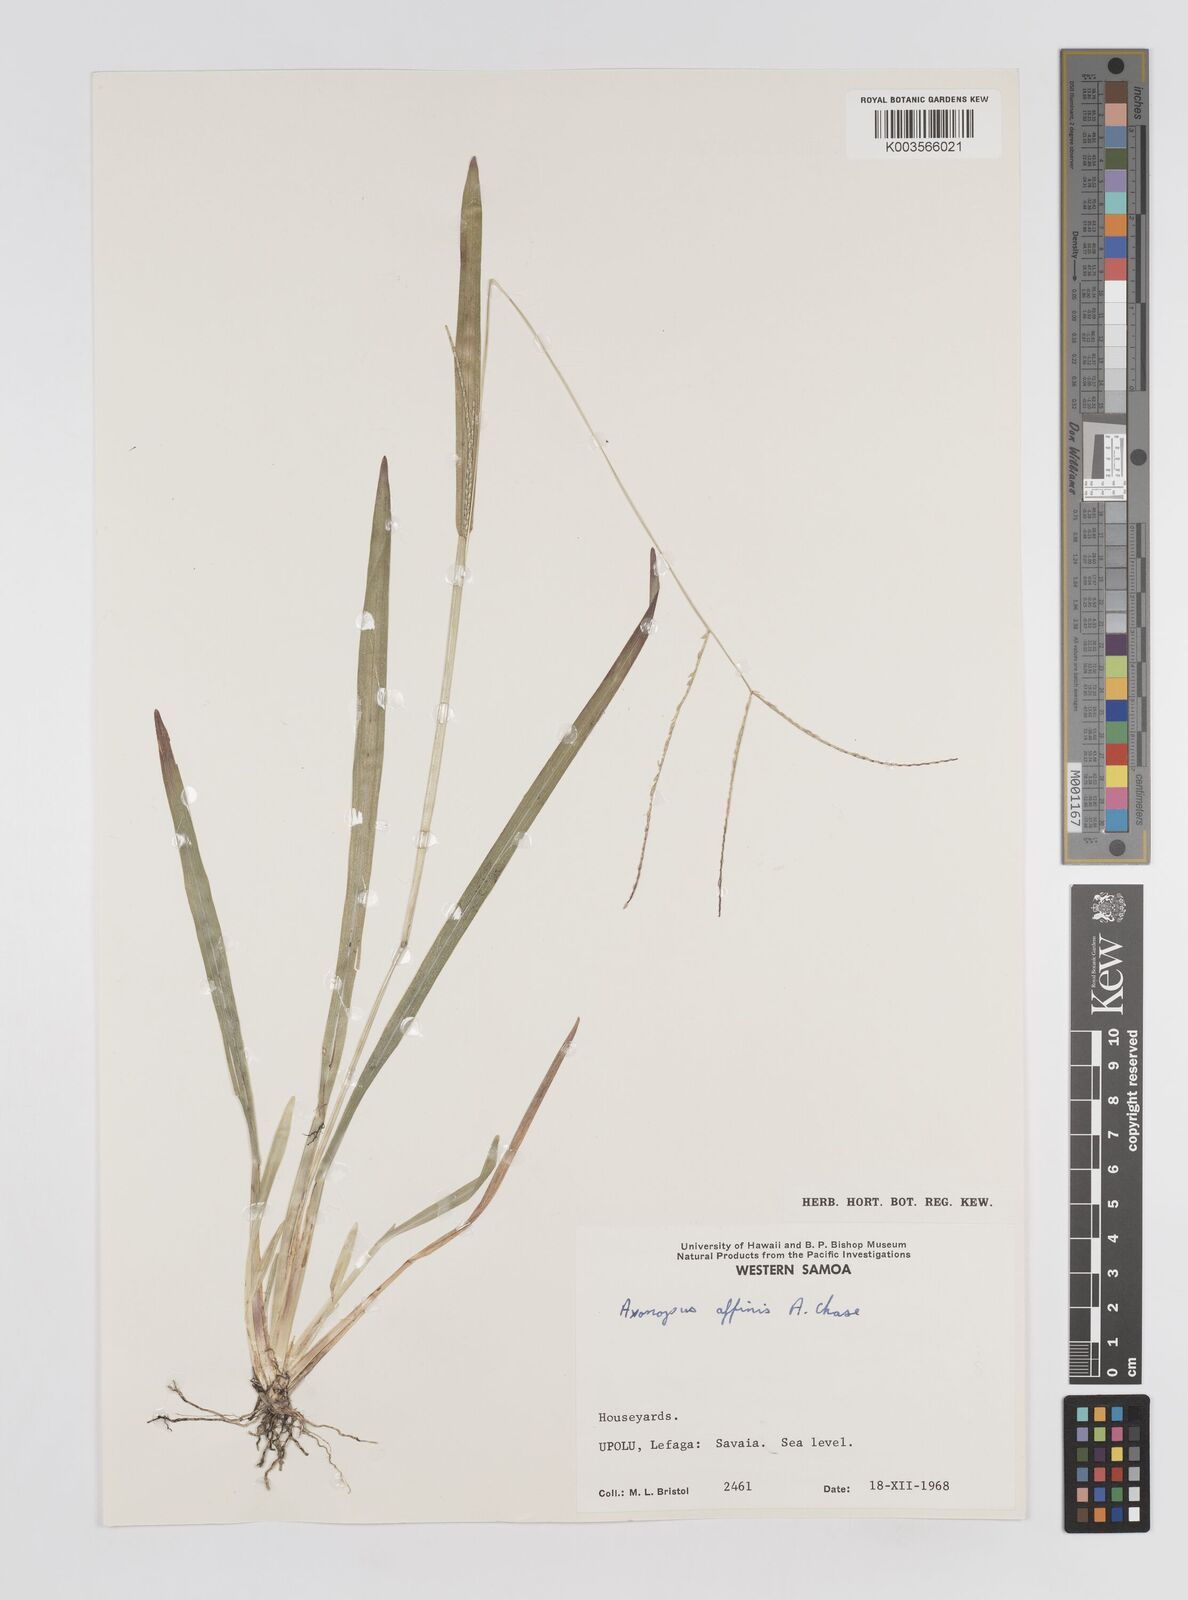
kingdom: Plantae
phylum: Tracheophyta
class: Liliopsida
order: Poales
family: Poaceae
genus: Axonopus
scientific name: Axonopus compressus
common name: American carpet grass
